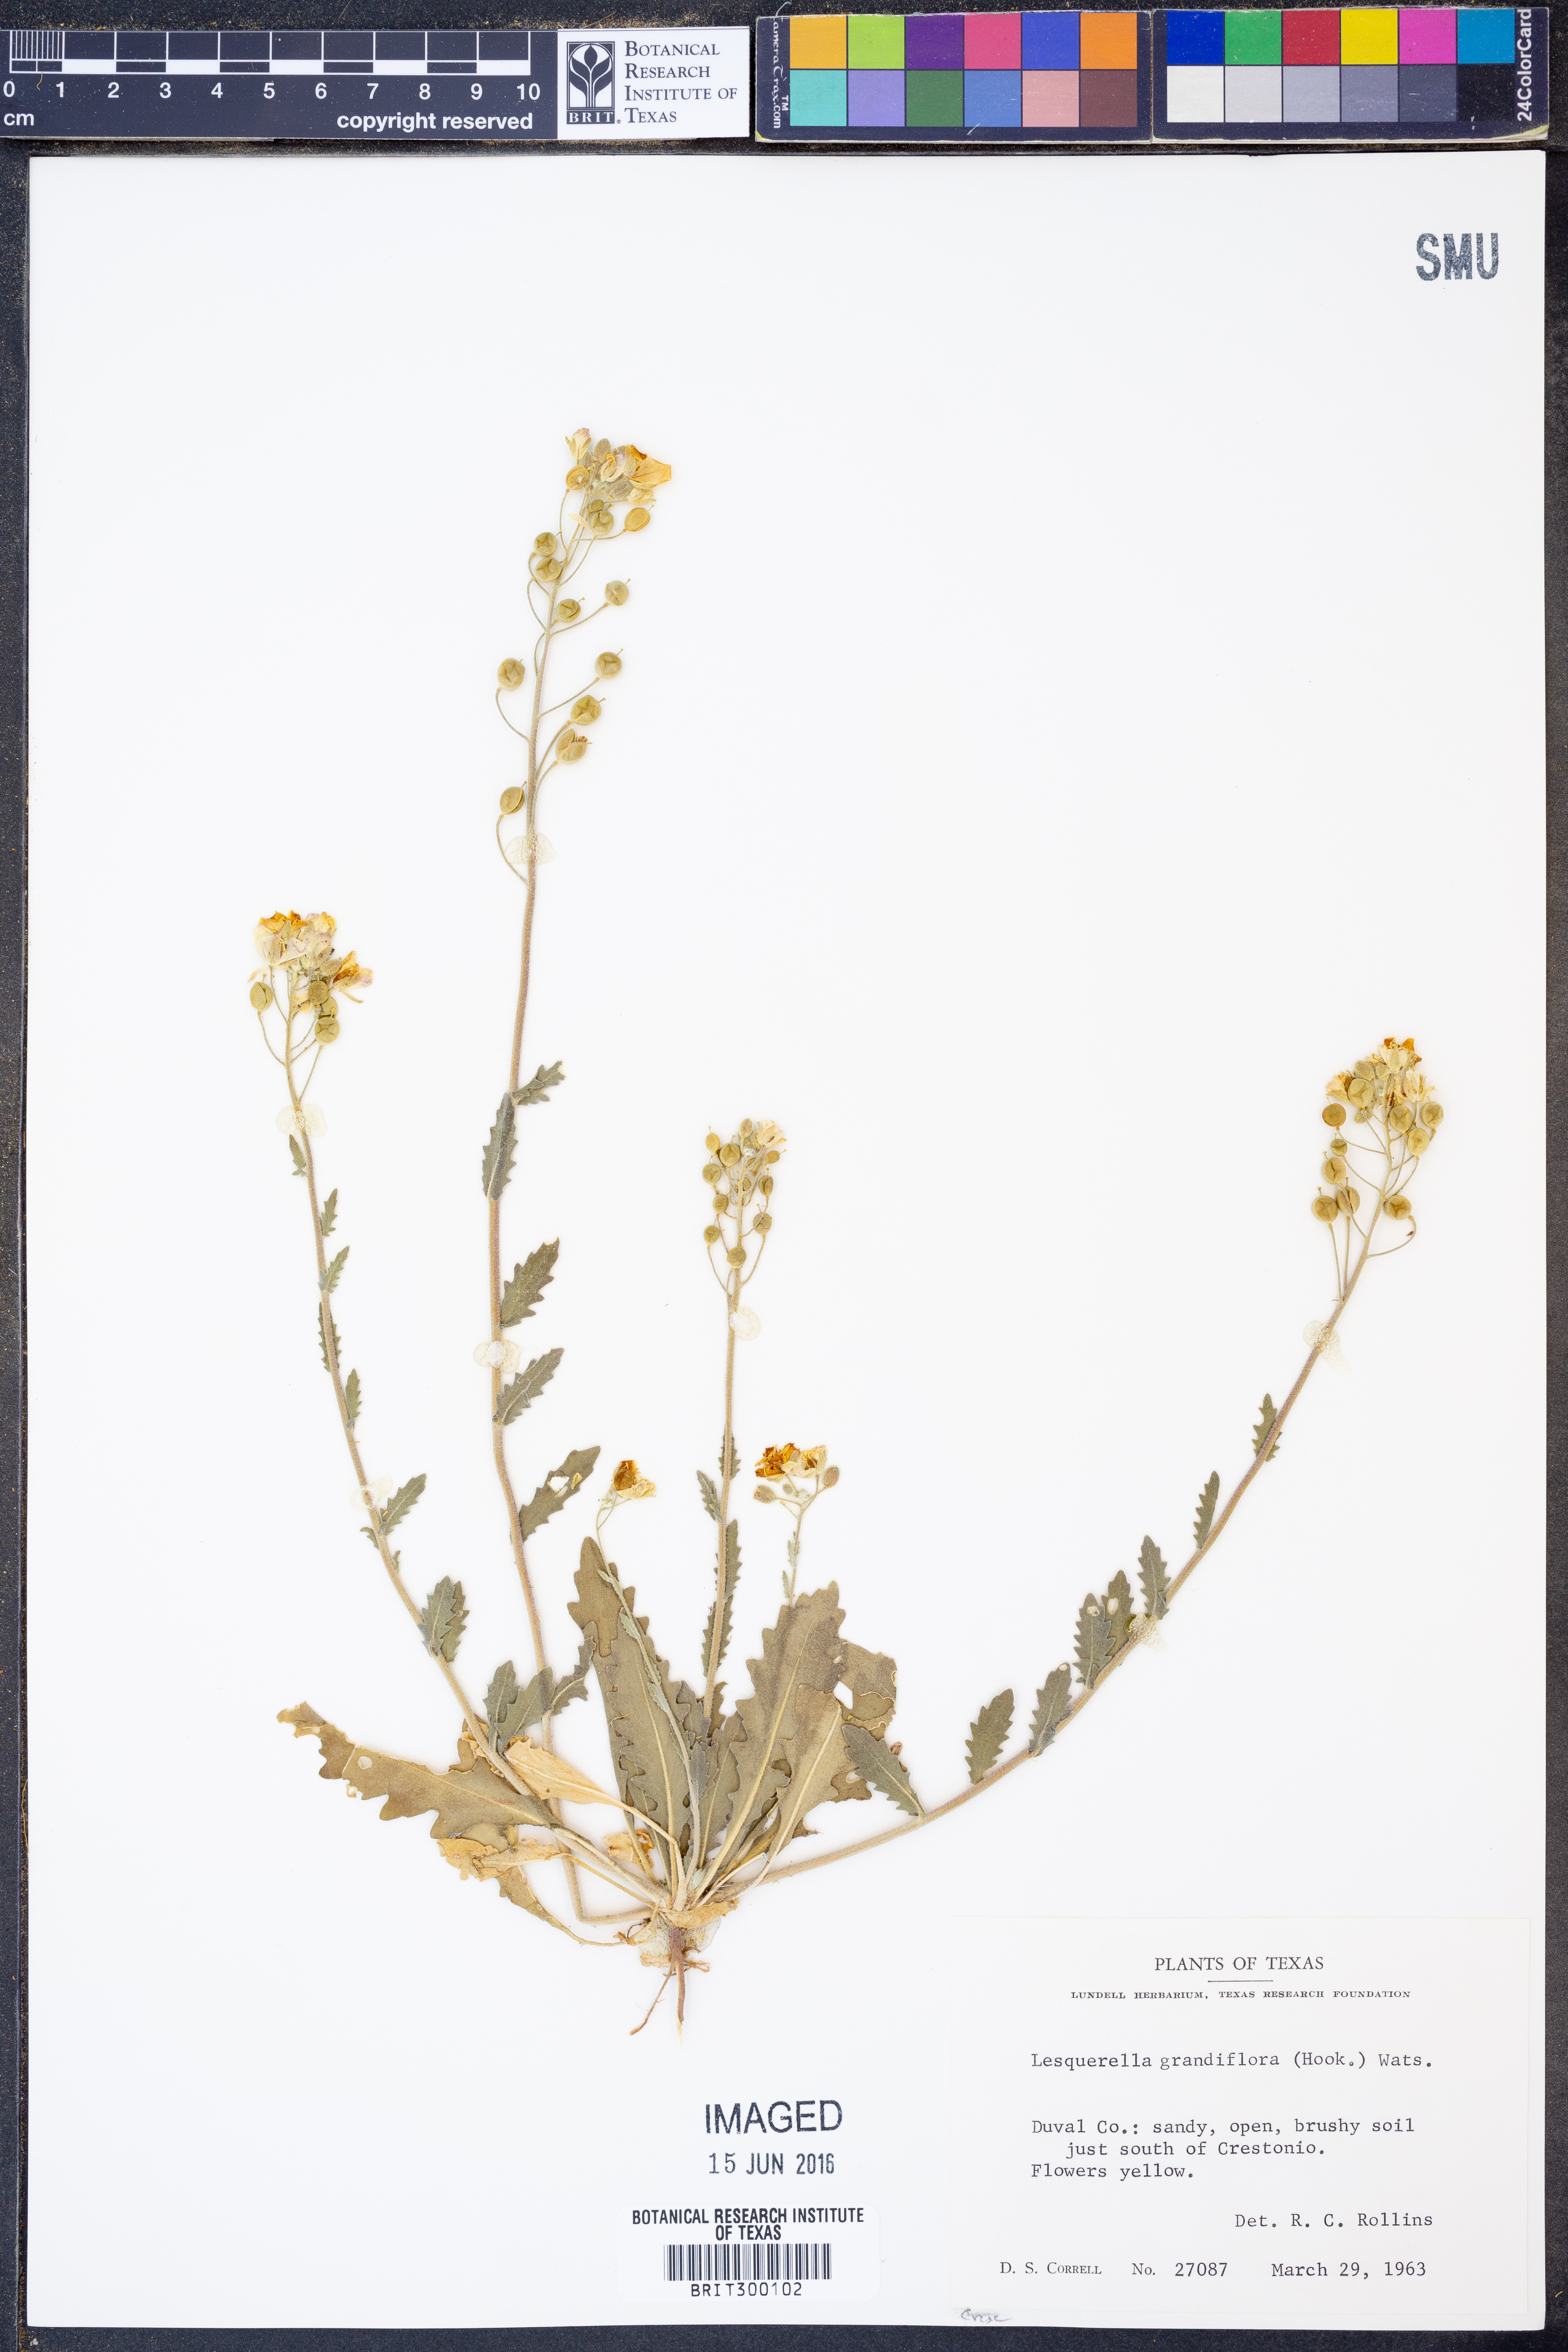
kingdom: Plantae
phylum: Tracheophyta
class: Magnoliopsida
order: Brassicales
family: Brassicaceae
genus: Paysonia
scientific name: Paysonia grandiflora
